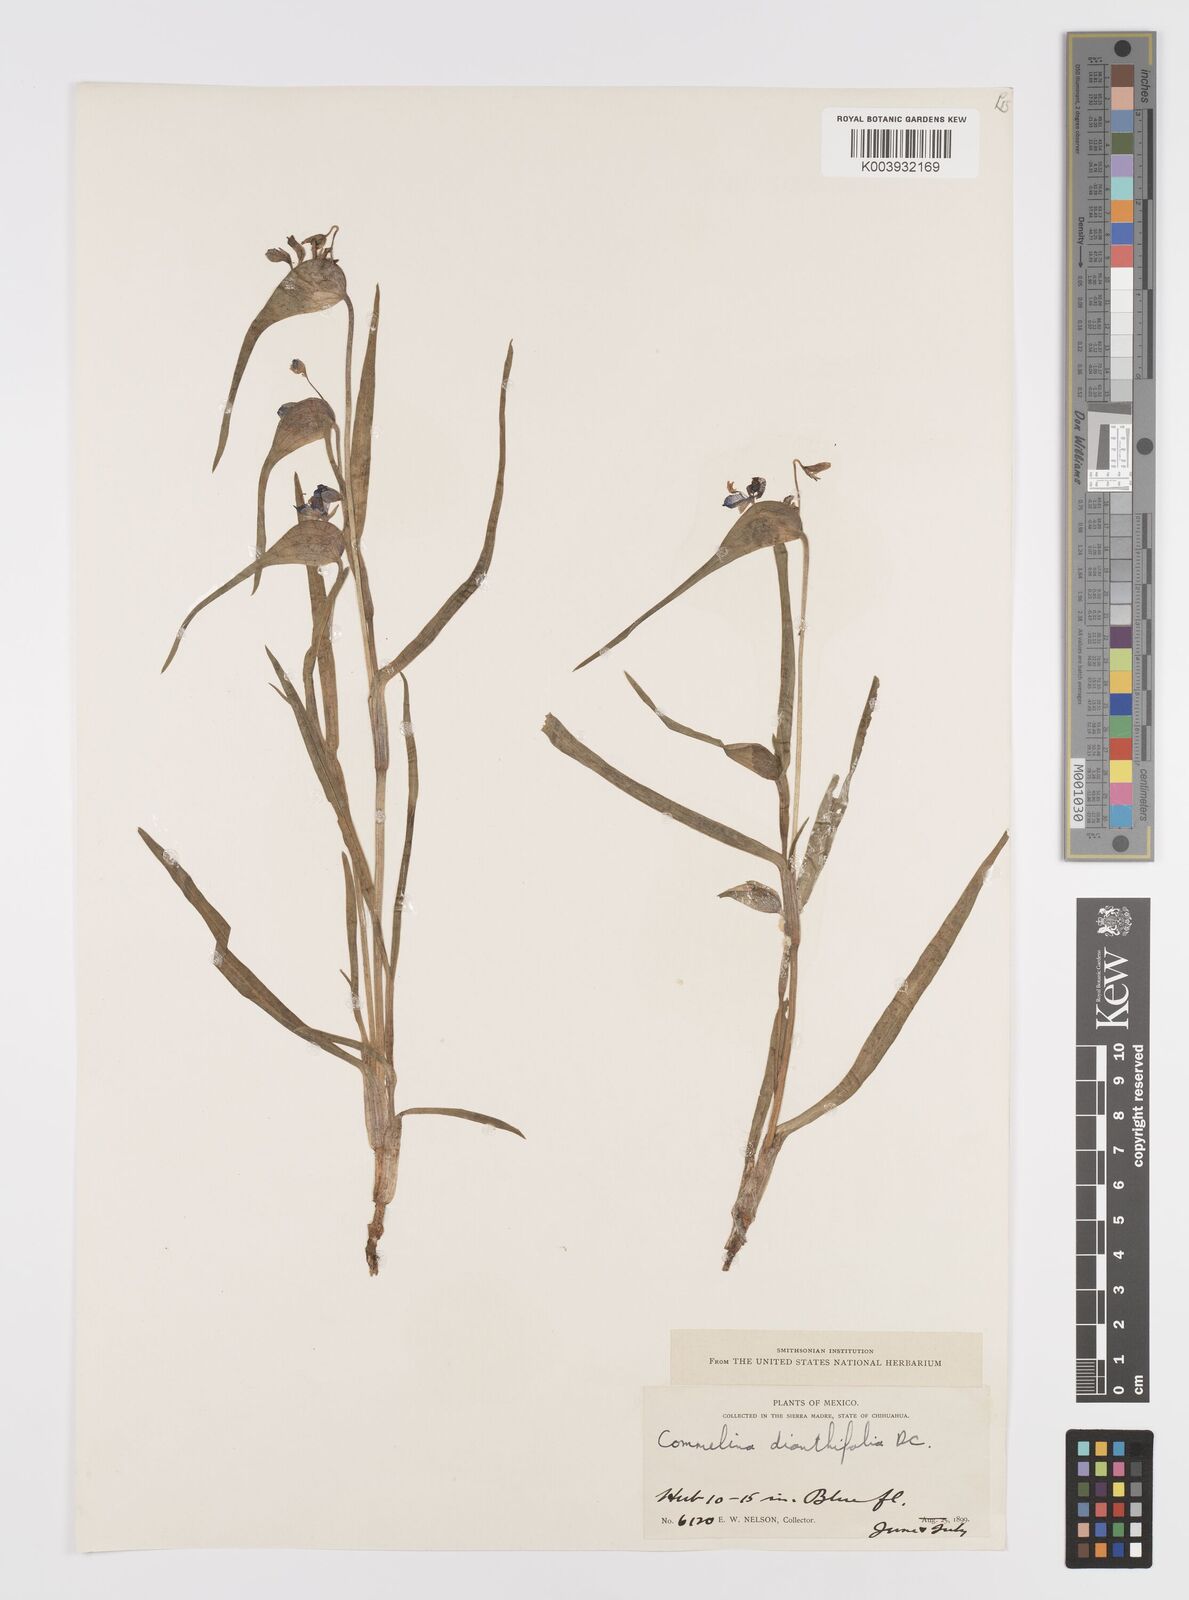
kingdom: Plantae
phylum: Tracheophyta
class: Liliopsida
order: Commelinales
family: Commelinaceae
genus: Commelina
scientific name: Commelina dianthifolia
